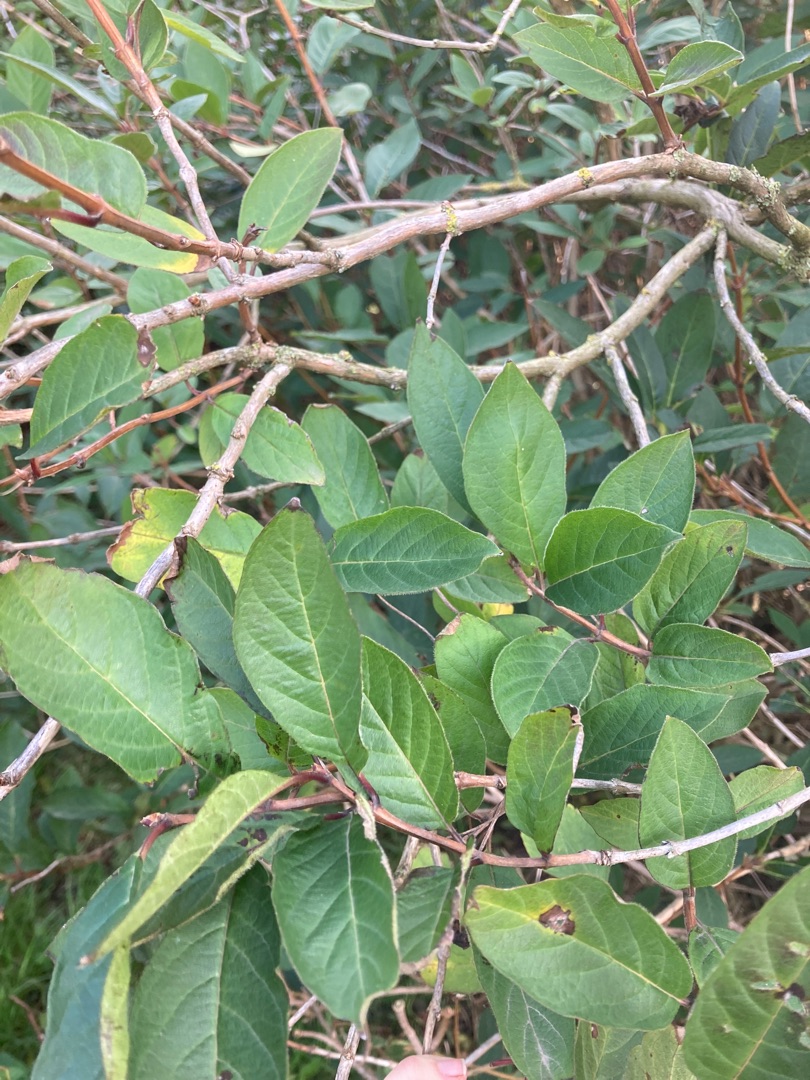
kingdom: Plantae
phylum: Tracheophyta
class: Magnoliopsida
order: Dipsacales
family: Caprifoliaceae
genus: Lonicera
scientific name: Lonicera involucrata
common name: Californisk gedeblad
